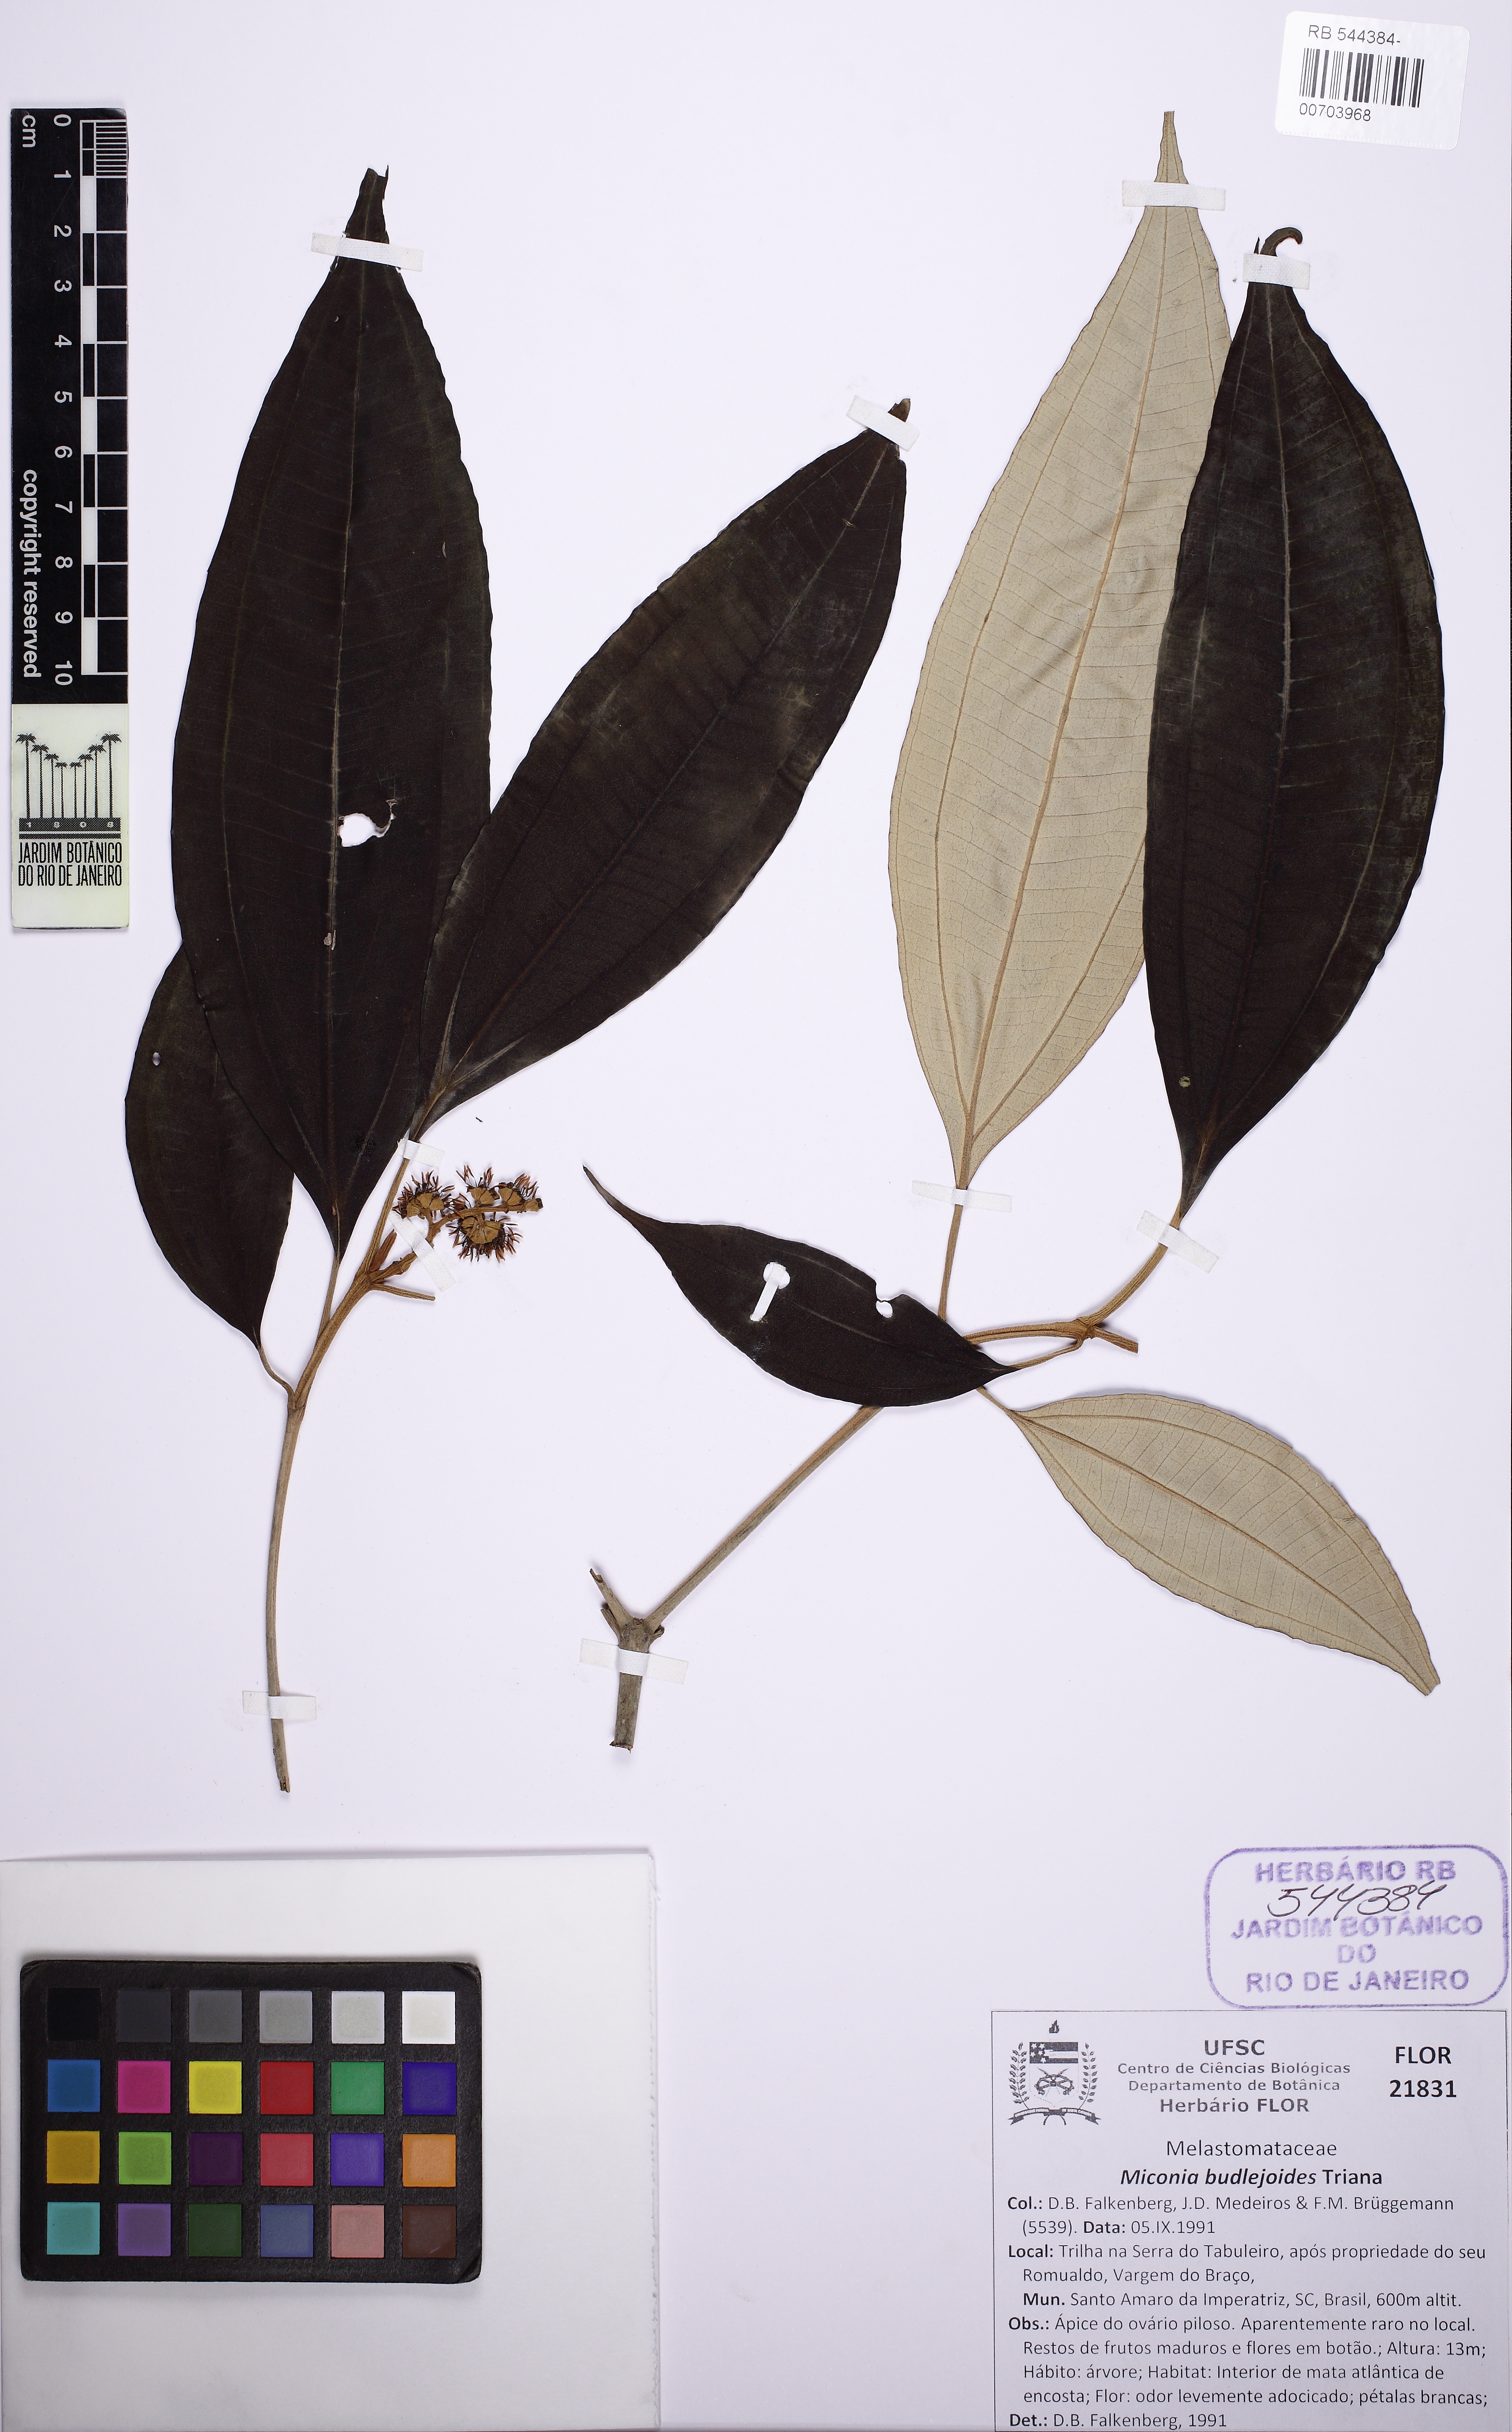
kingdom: Plantae
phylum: Tracheophyta
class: Magnoliopsida
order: Myrtales
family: Melastomataceae
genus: Miconia
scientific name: Miconia buddlejoides
